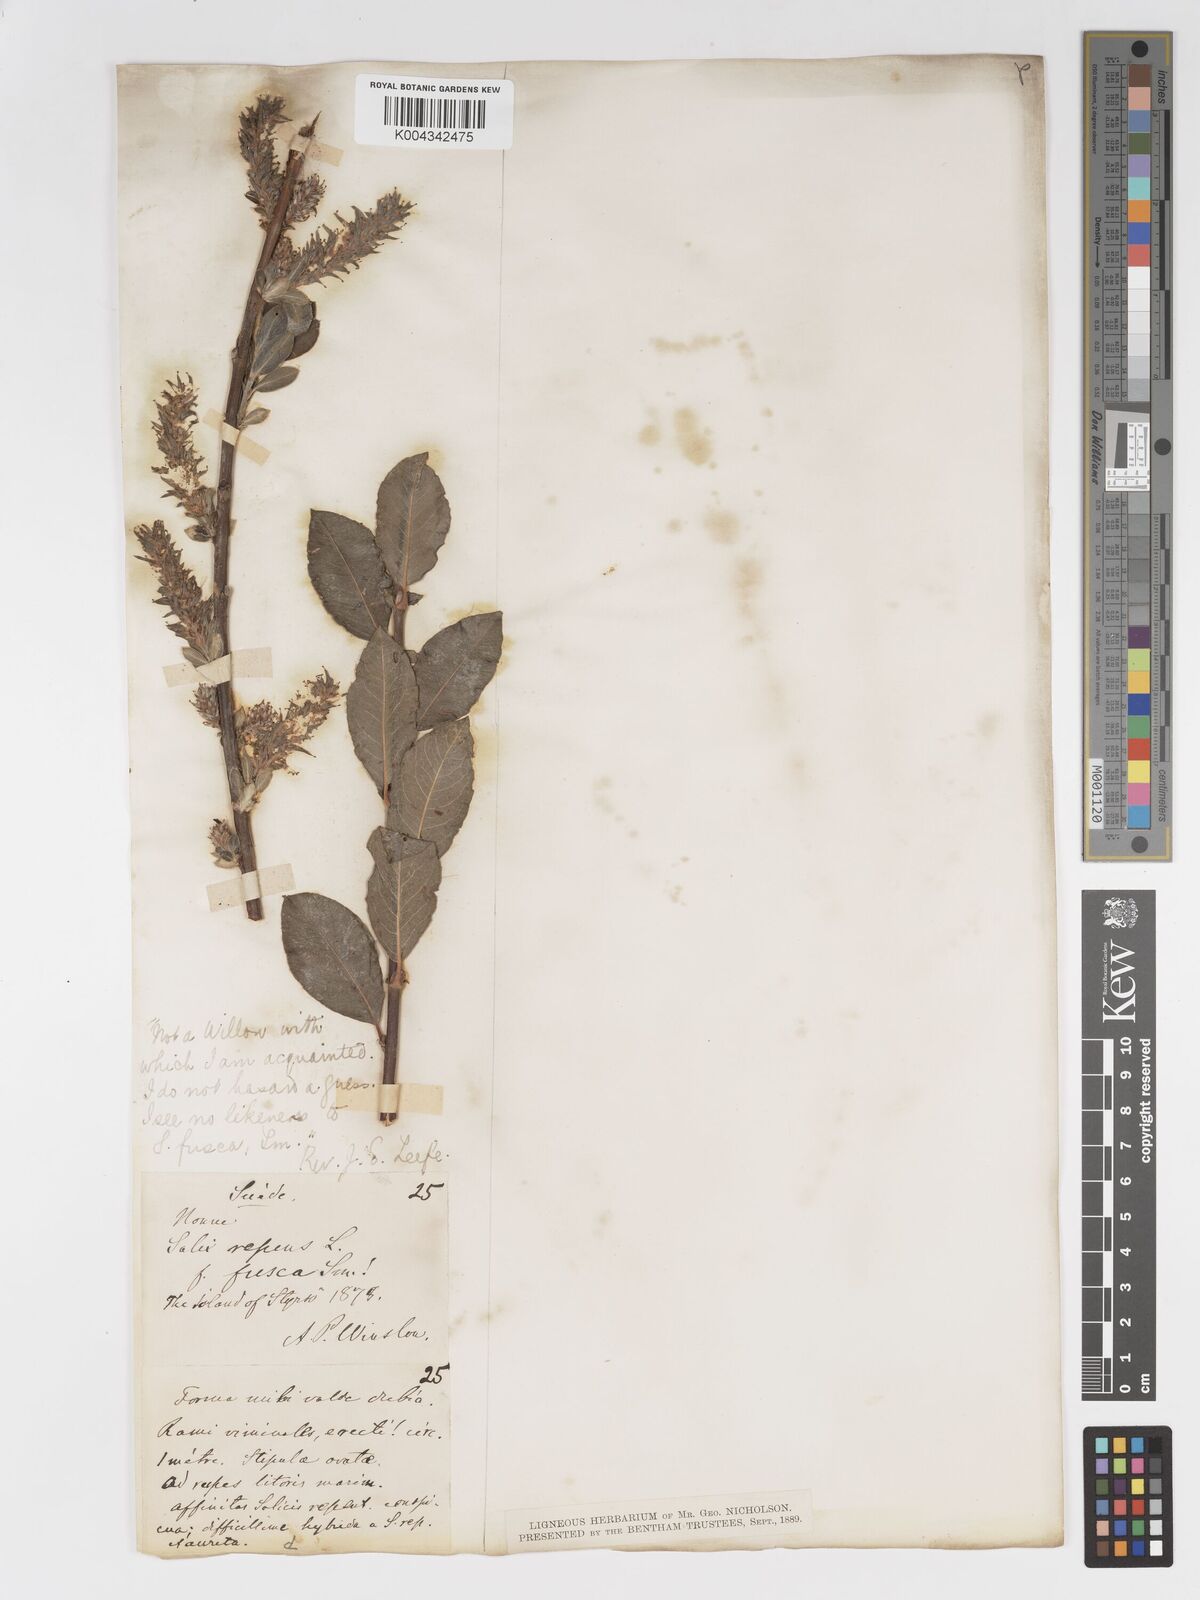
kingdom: Plantae
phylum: Tracheophyta
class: Magnoliopsida
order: Malpighiales
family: Salicaceae
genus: Salix
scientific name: Salix
